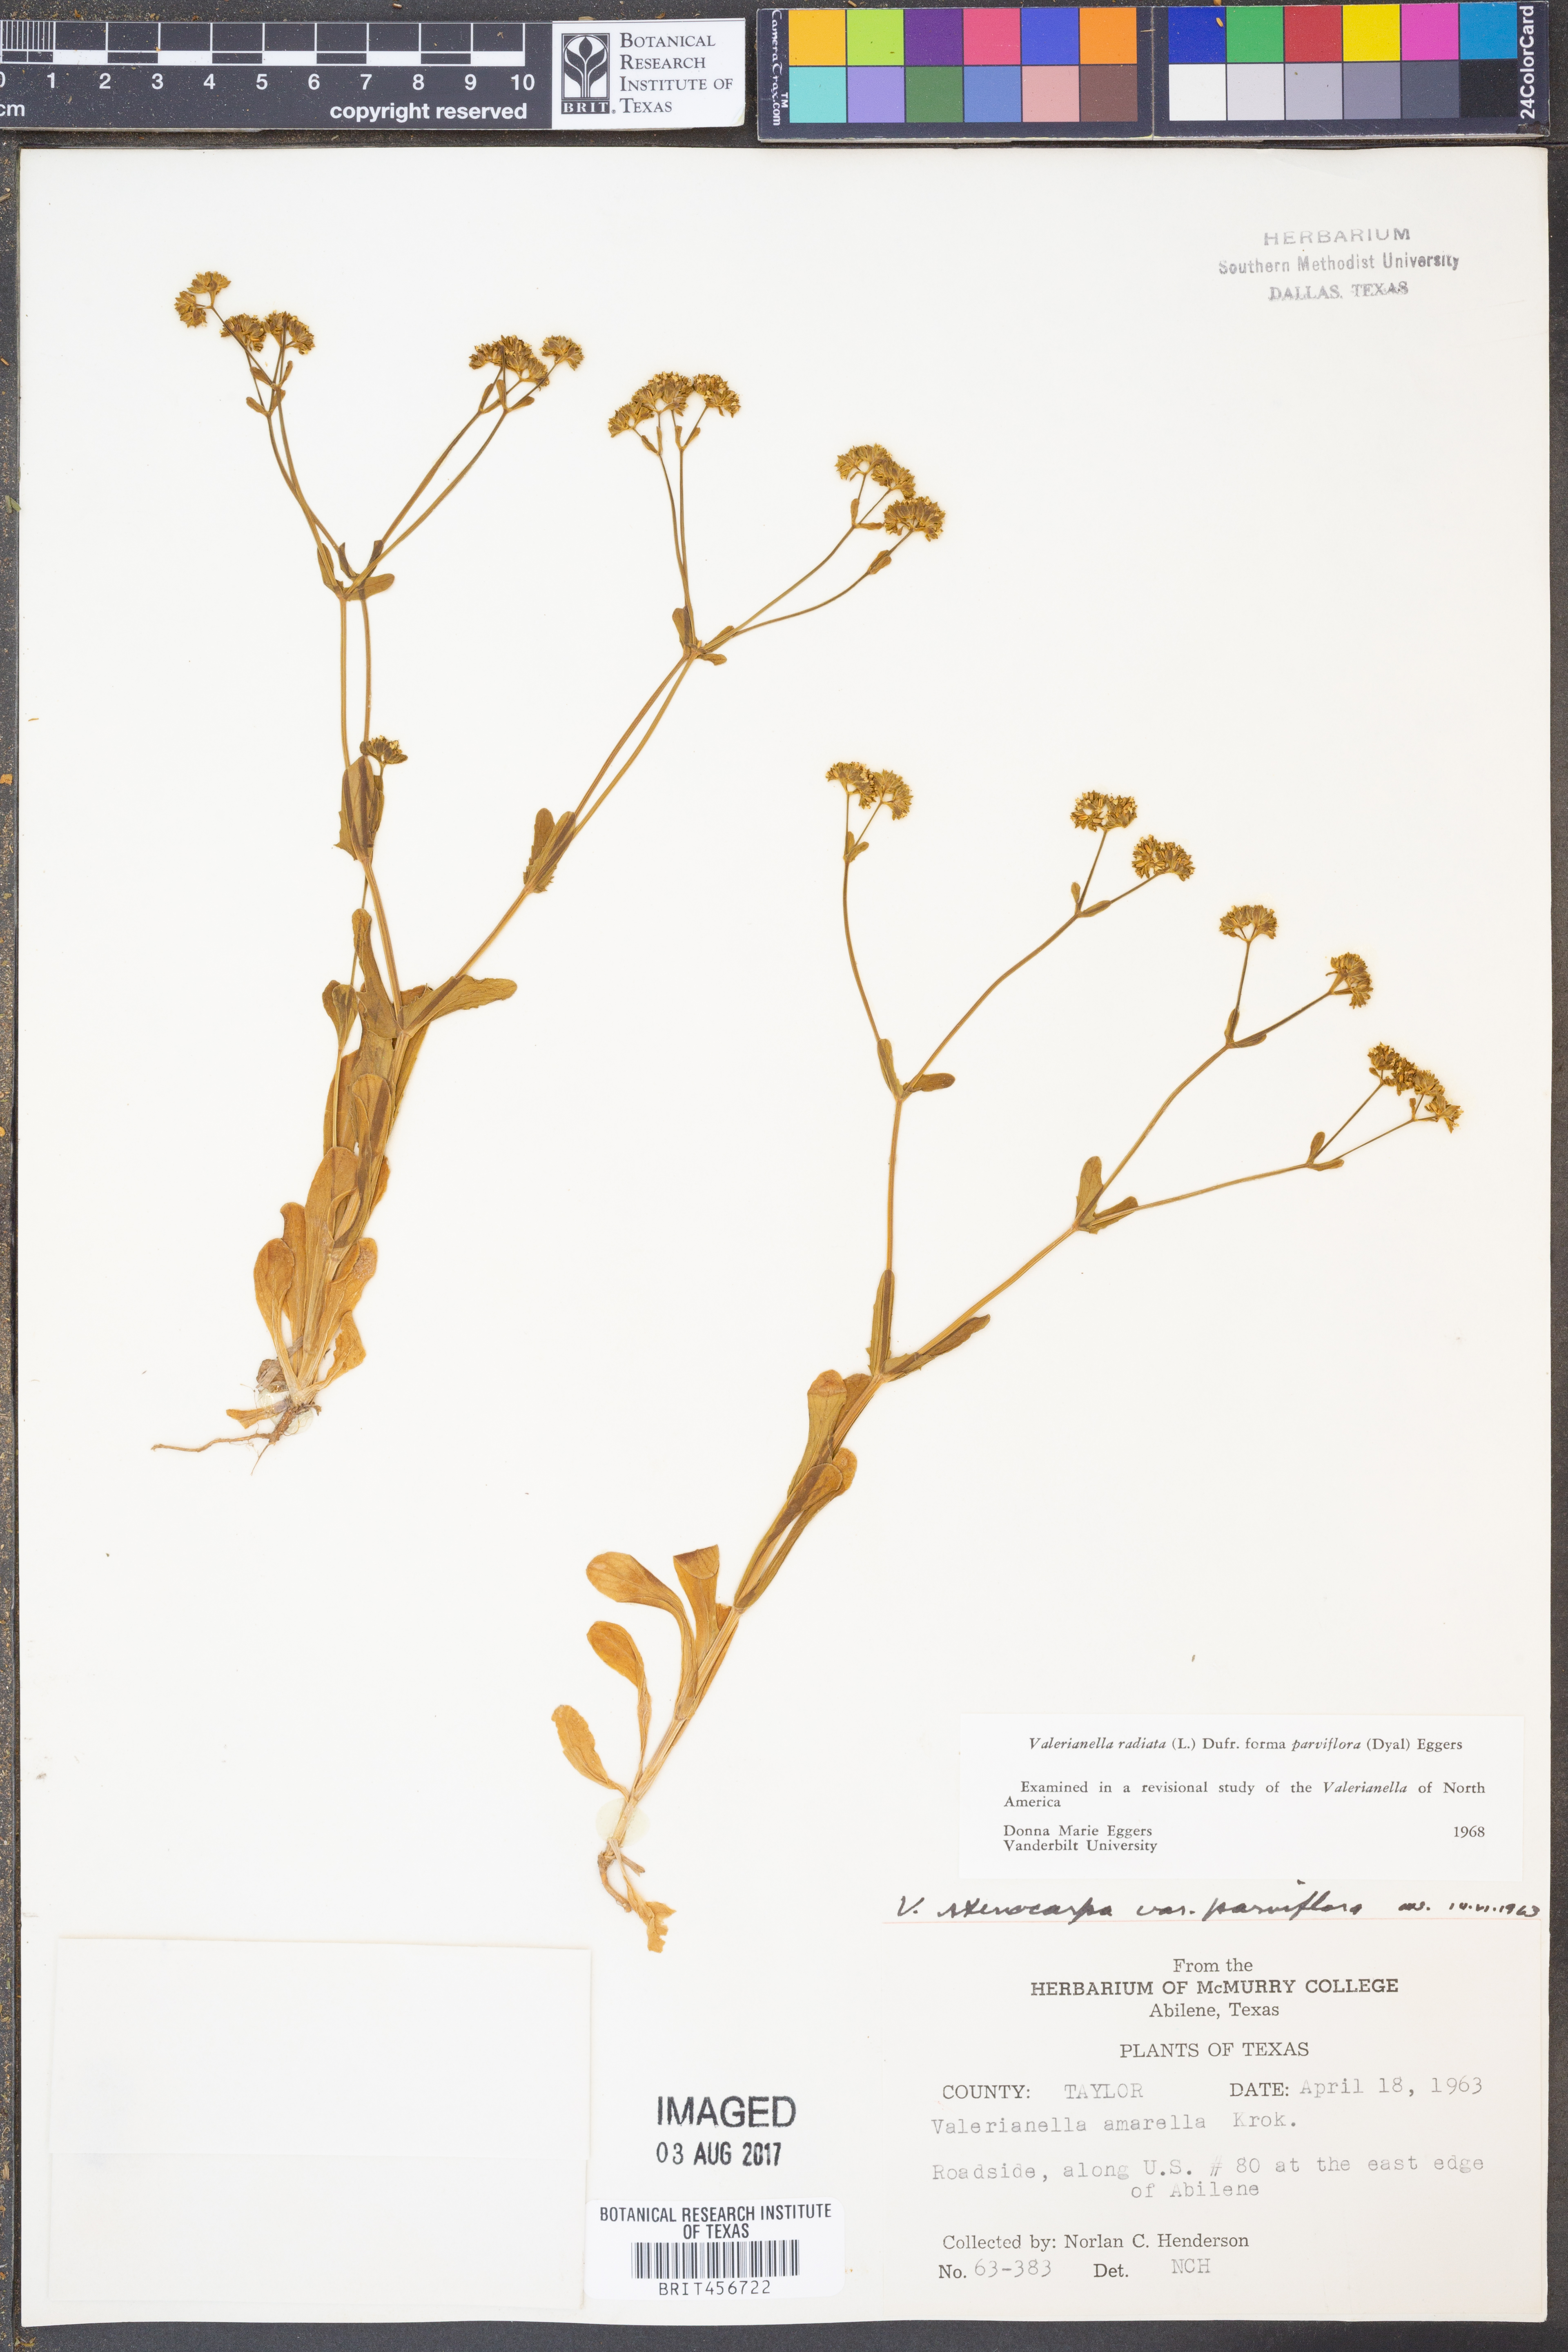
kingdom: Plantae
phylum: Tracheophyta
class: Magnoliopsida
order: Dipsacales
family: Caprifoliaceae
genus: Valerianella
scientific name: Valerianella radiata
